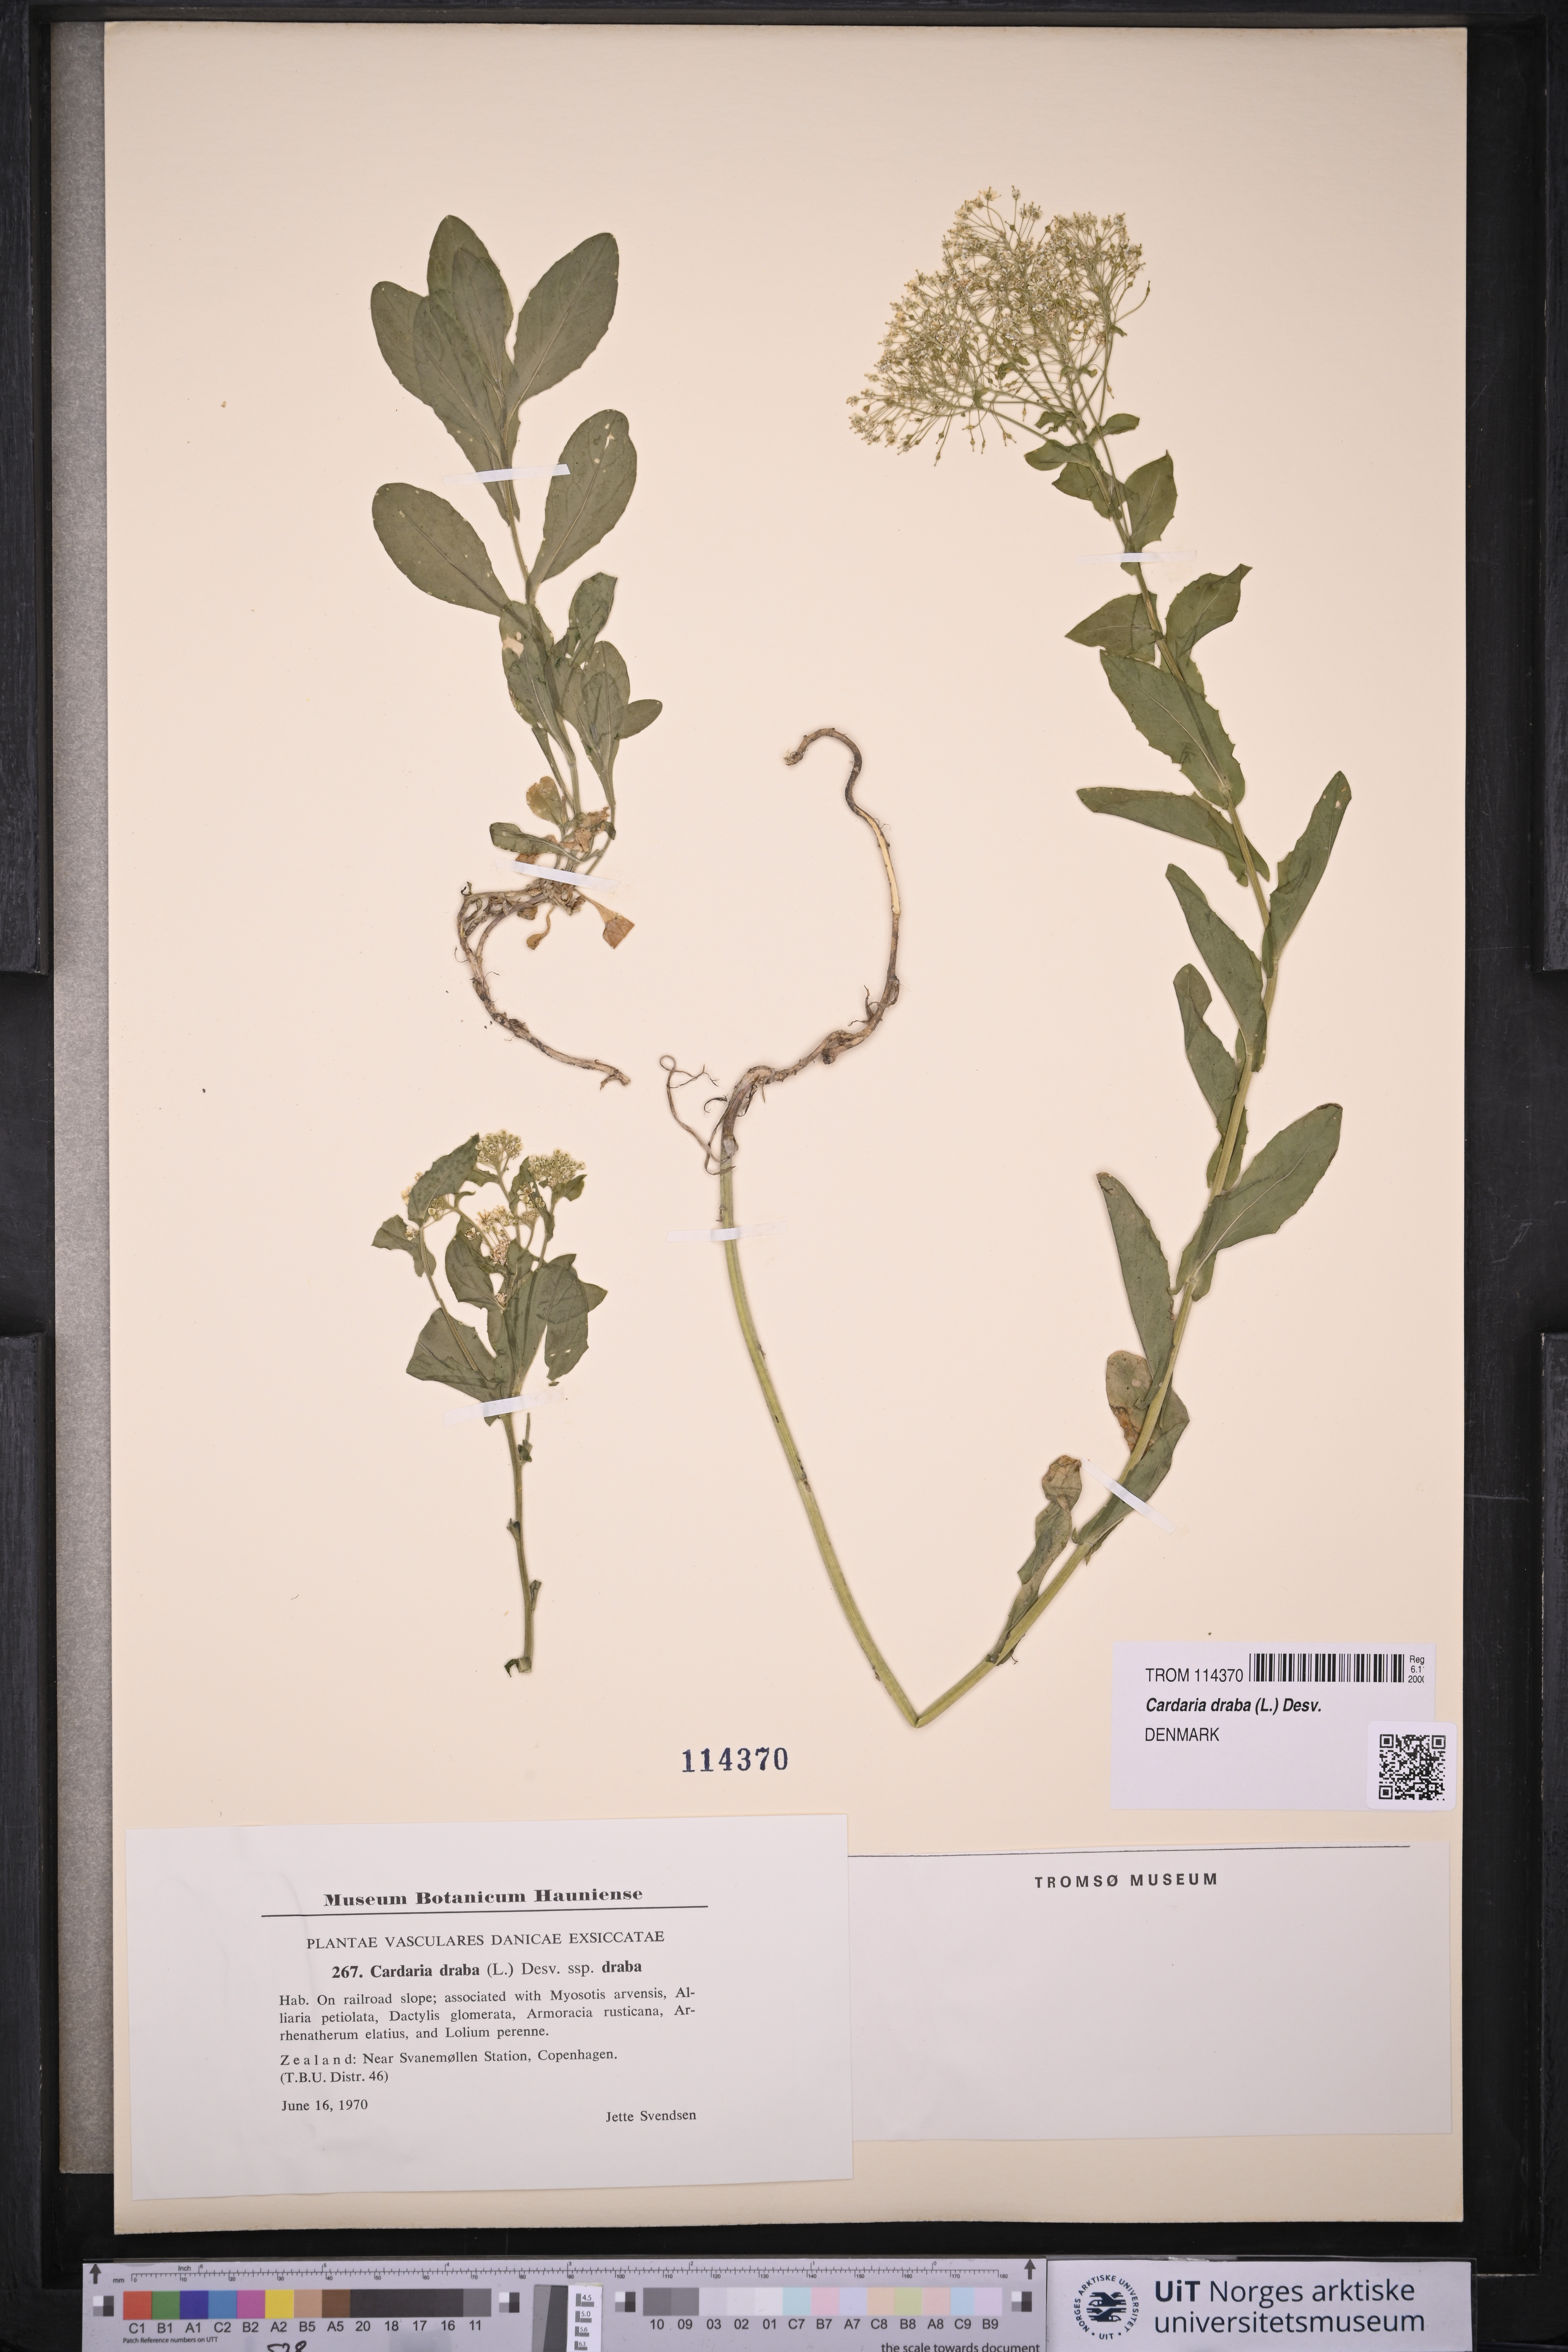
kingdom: Plantae
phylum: Tracheophyta
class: Magnoliopsida
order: Brassicales
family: Brassicaceae
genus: Lepidium
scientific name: Lepidium draba
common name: Hoary cress
